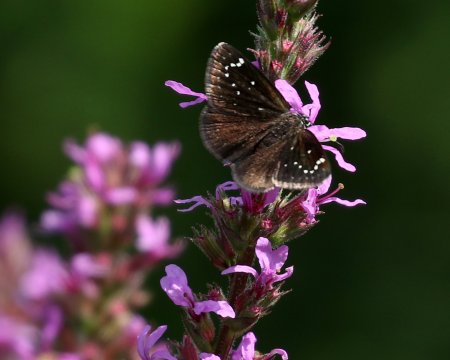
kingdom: Animalia
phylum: Arthropoda
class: Insecta
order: Lepidoptera
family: Hesperiidae
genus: Pholisora
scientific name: Pholisora catullus
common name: Common Sootywing
